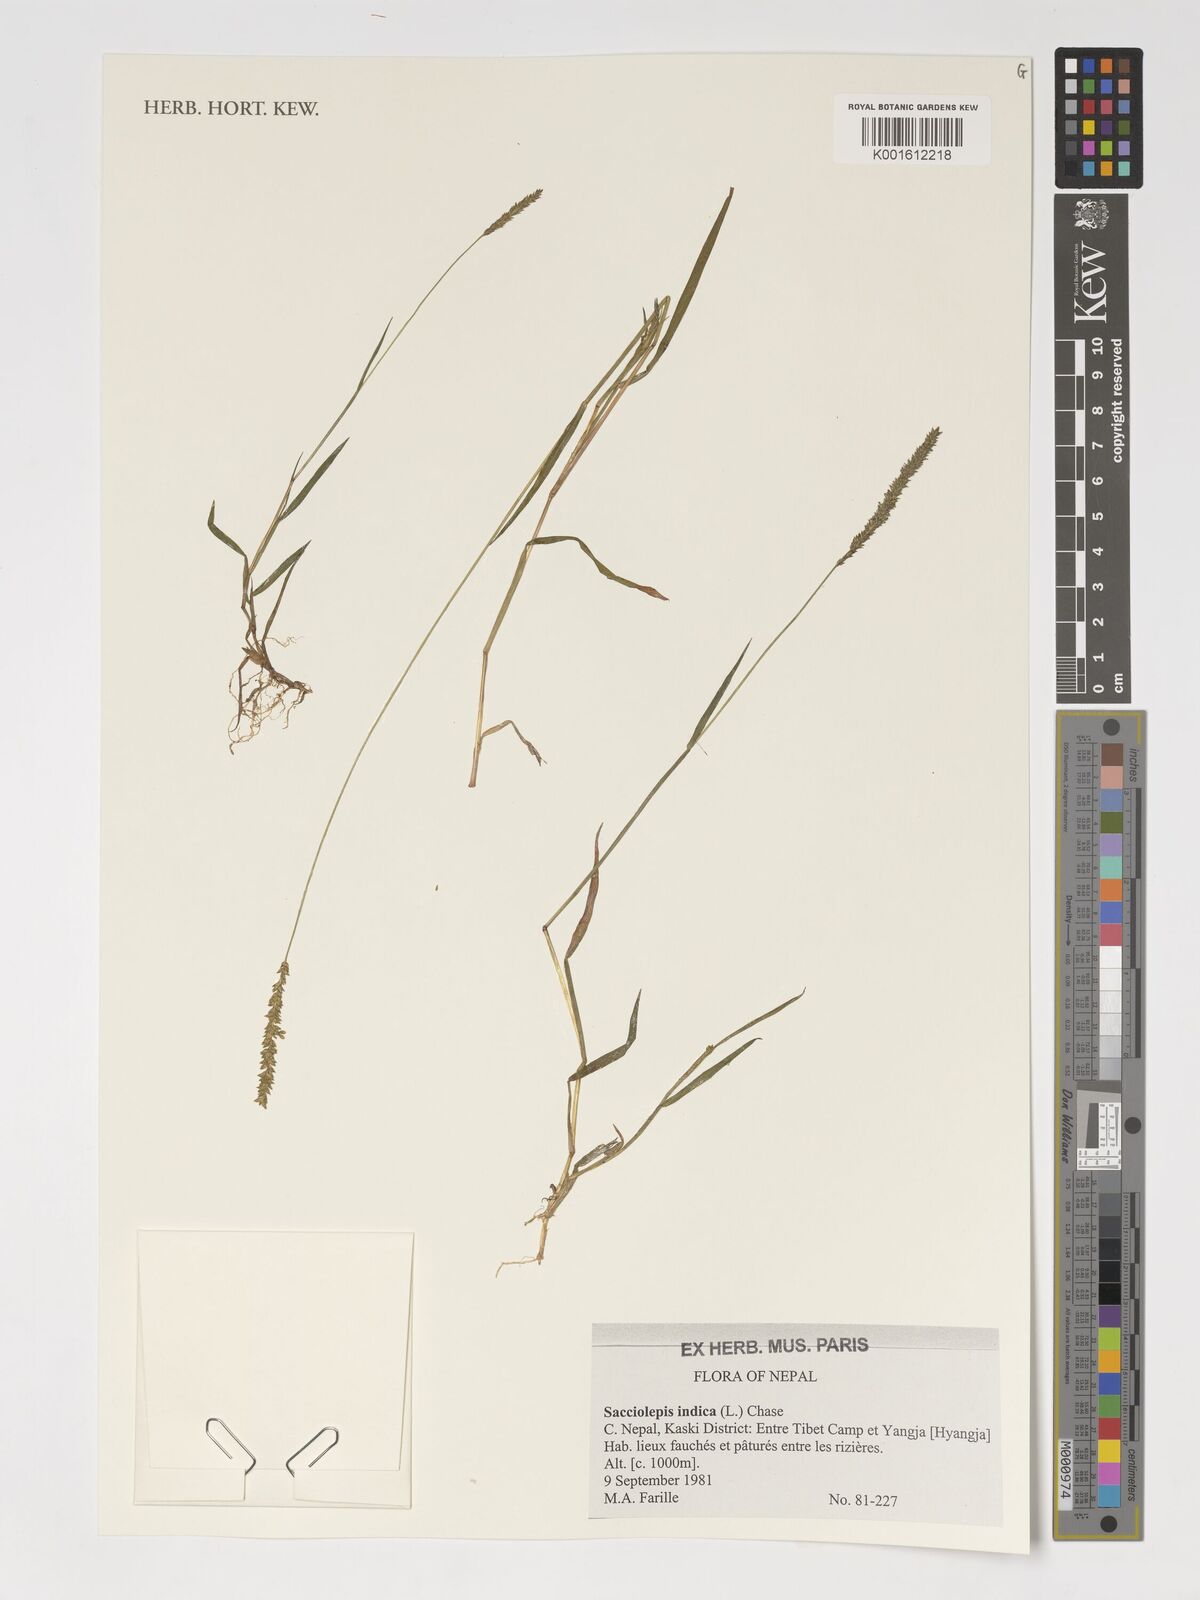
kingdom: Plantae
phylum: Tracheophyta
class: Liliopsida
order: Poales
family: Poaceae
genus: Sacciolepis
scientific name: Sacciolepis indica
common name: Glenwoodgrass
